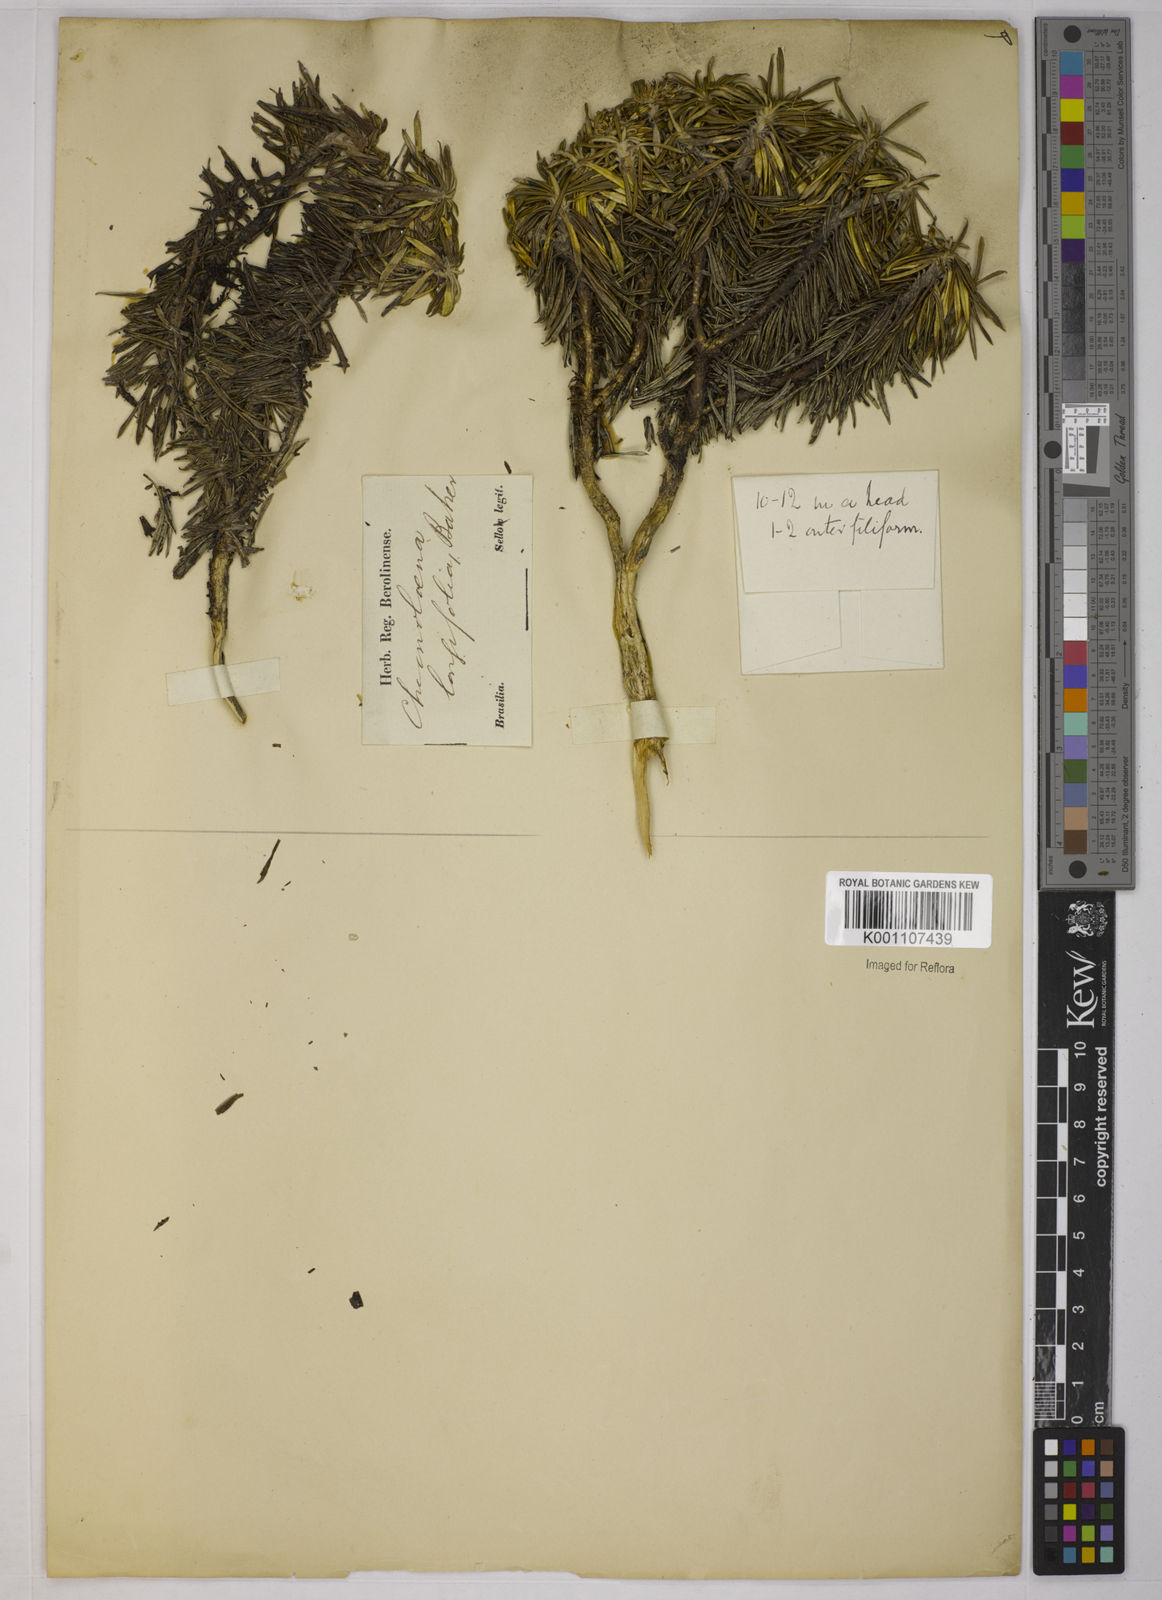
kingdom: Plantae
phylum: Tracheophyta
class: Magnoliopsida
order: Asterales
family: Asteraceae
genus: Chionolaena
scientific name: Chionolaena capitata
